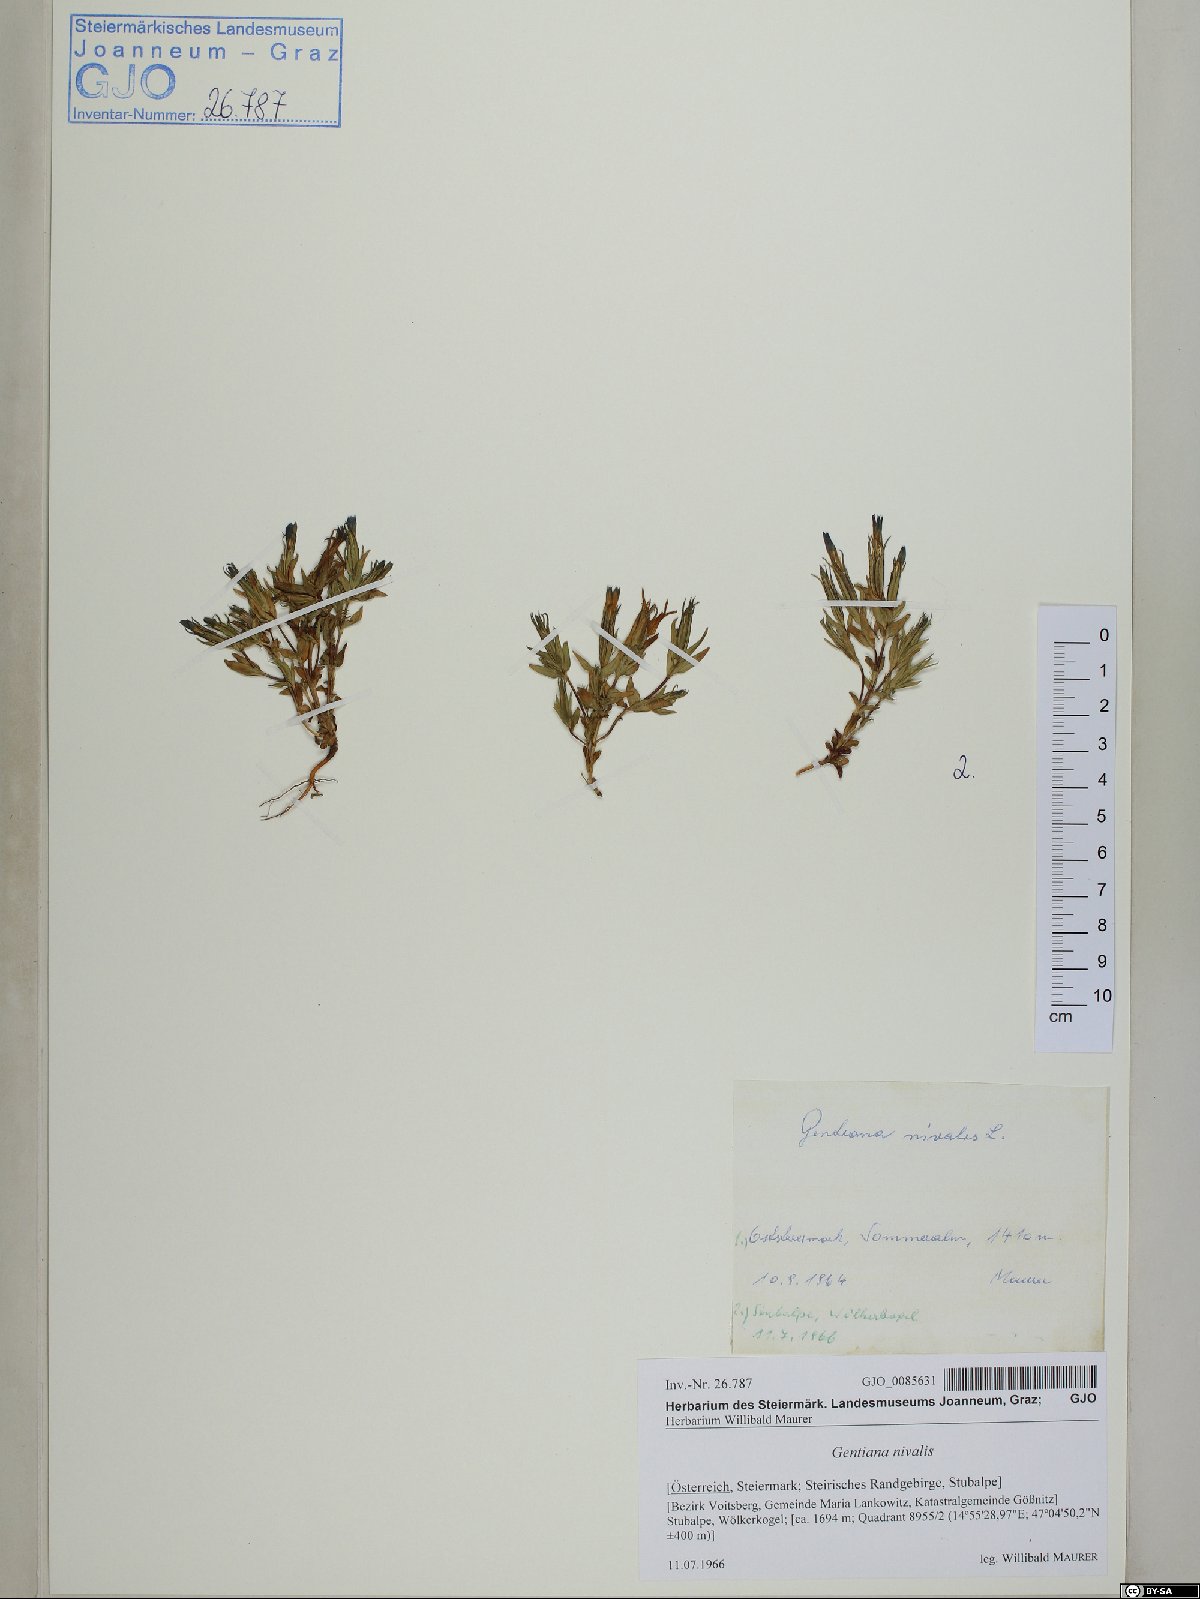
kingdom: Plantae
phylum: Tracheophyta
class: Magnoliopsida
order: Gentianales
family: Gentianaceae
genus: Gentiana
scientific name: Gentiana nivalis
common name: Alpine gentian
